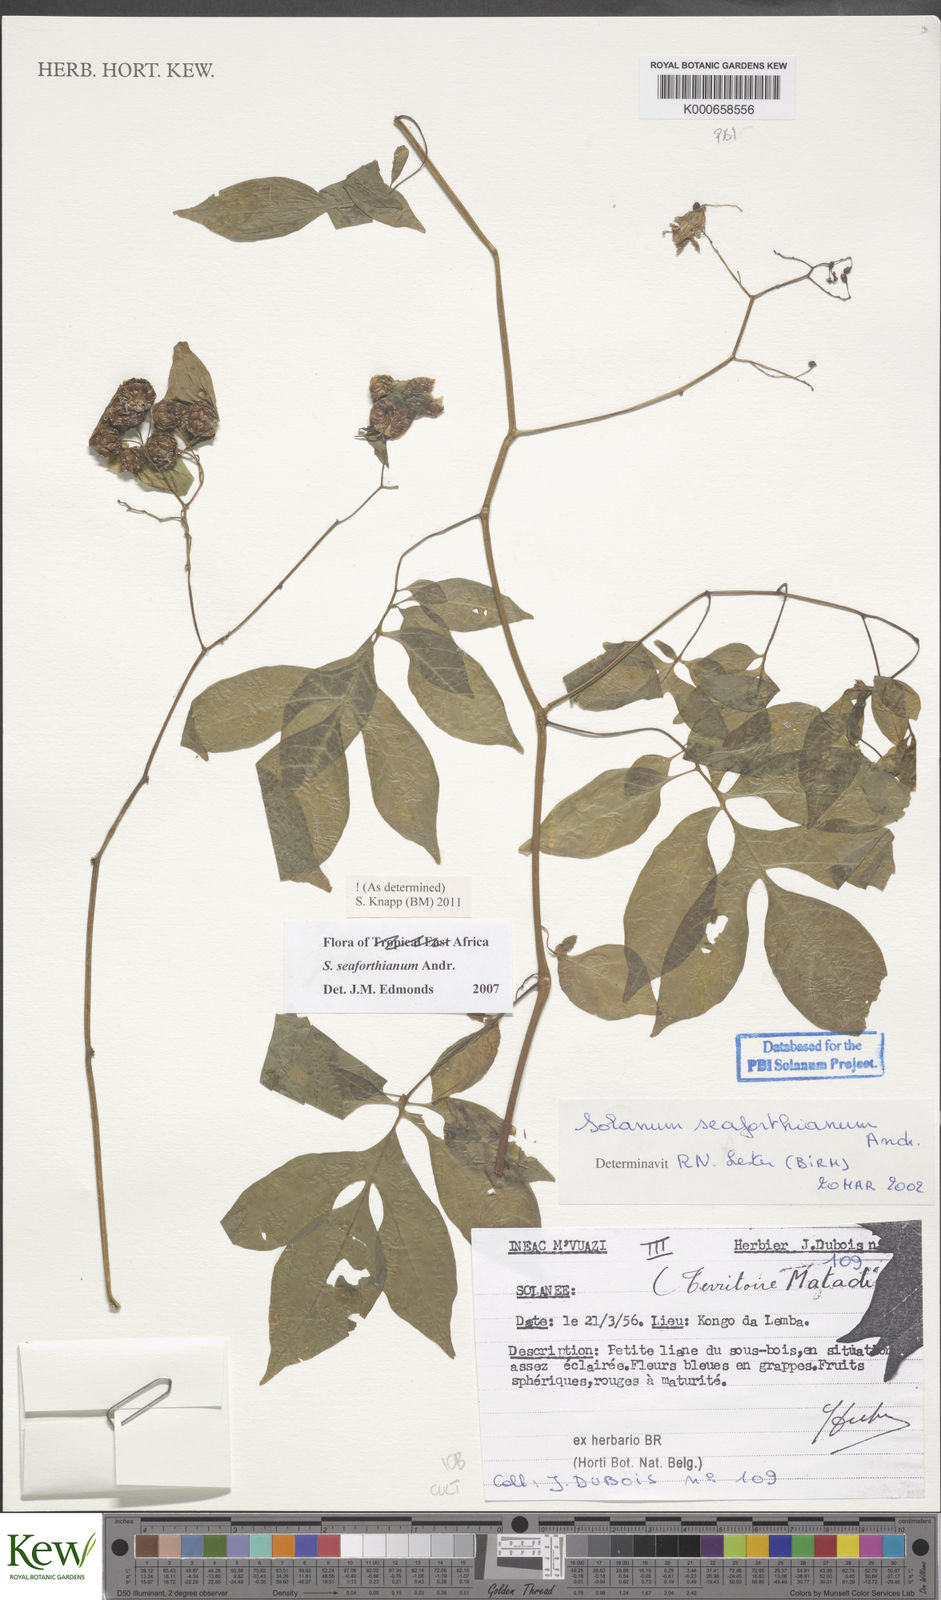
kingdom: Plantae
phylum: Tracheophyta
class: Magnoliopsida
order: Solanales
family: Solanaceae
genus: Solanum
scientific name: Solanum seaforthianum
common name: Brazilian nightshade
